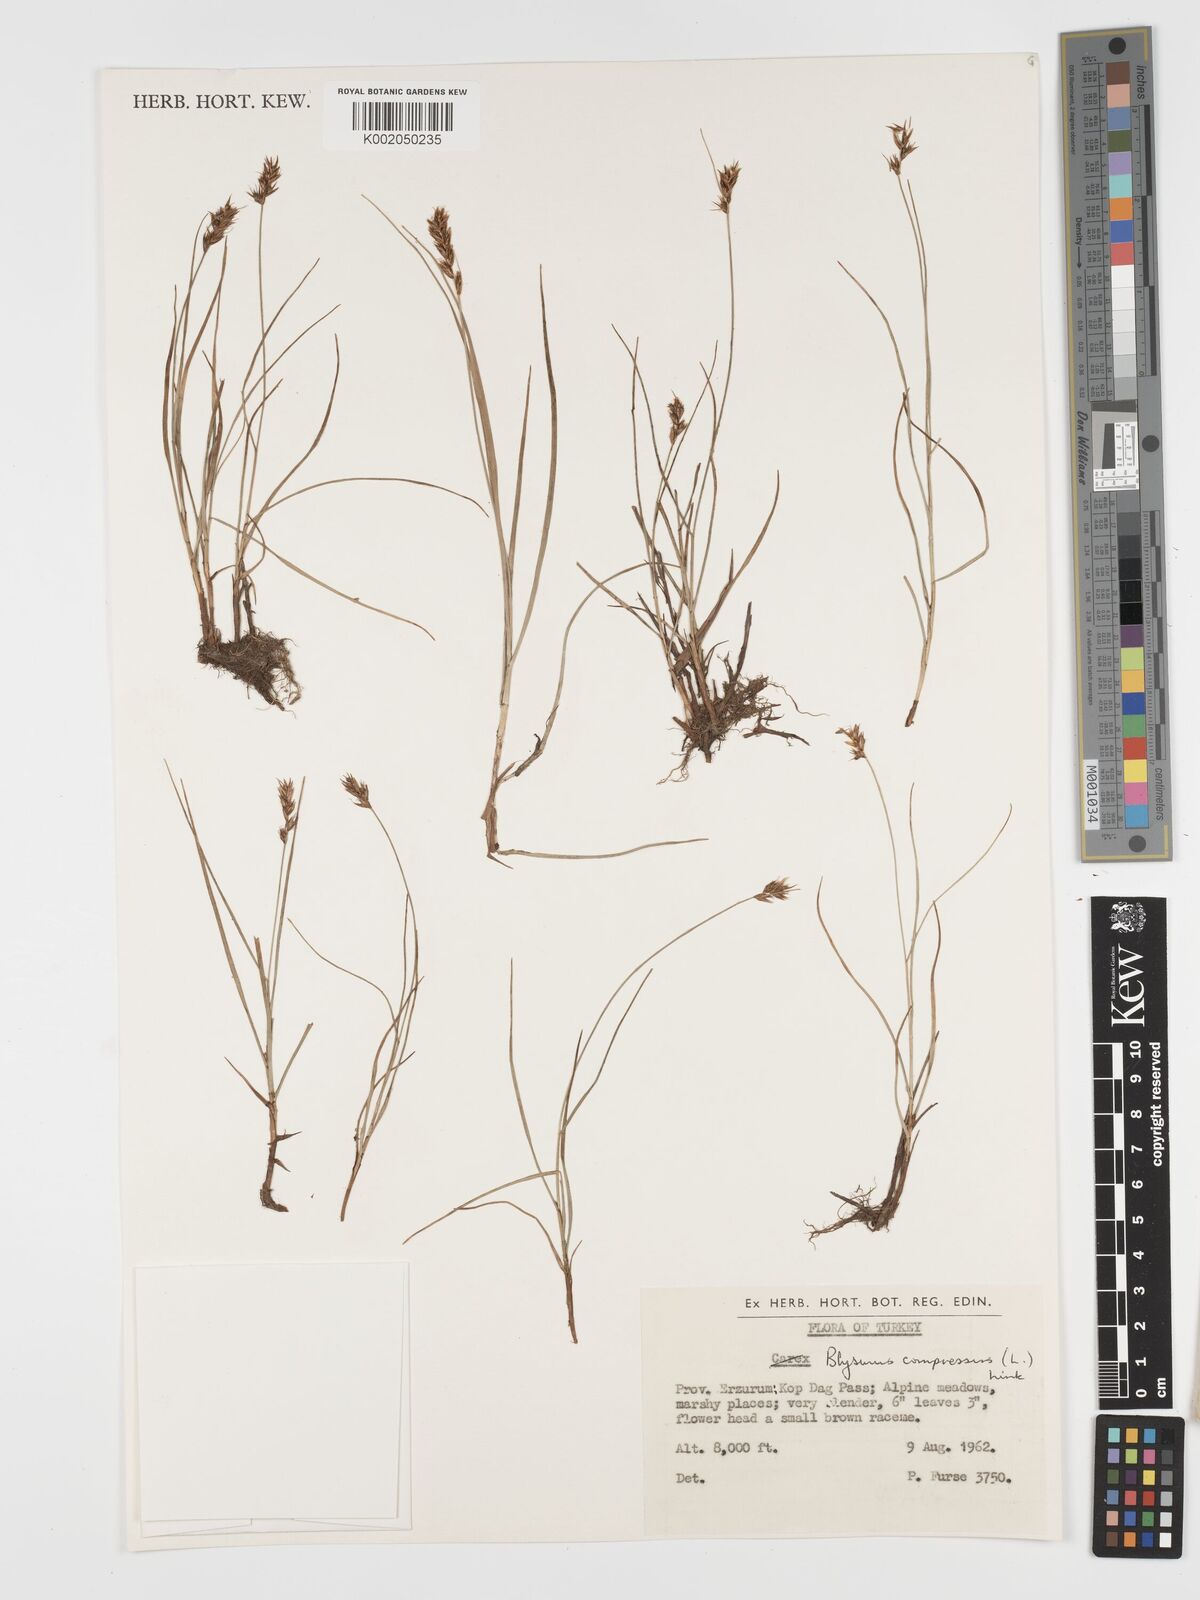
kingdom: Plantae
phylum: Tracheophyta
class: Liliopsida
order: Poales
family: Cyperaceae
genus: Blysmus
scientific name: Blysmus compressus
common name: Flat-sedge
